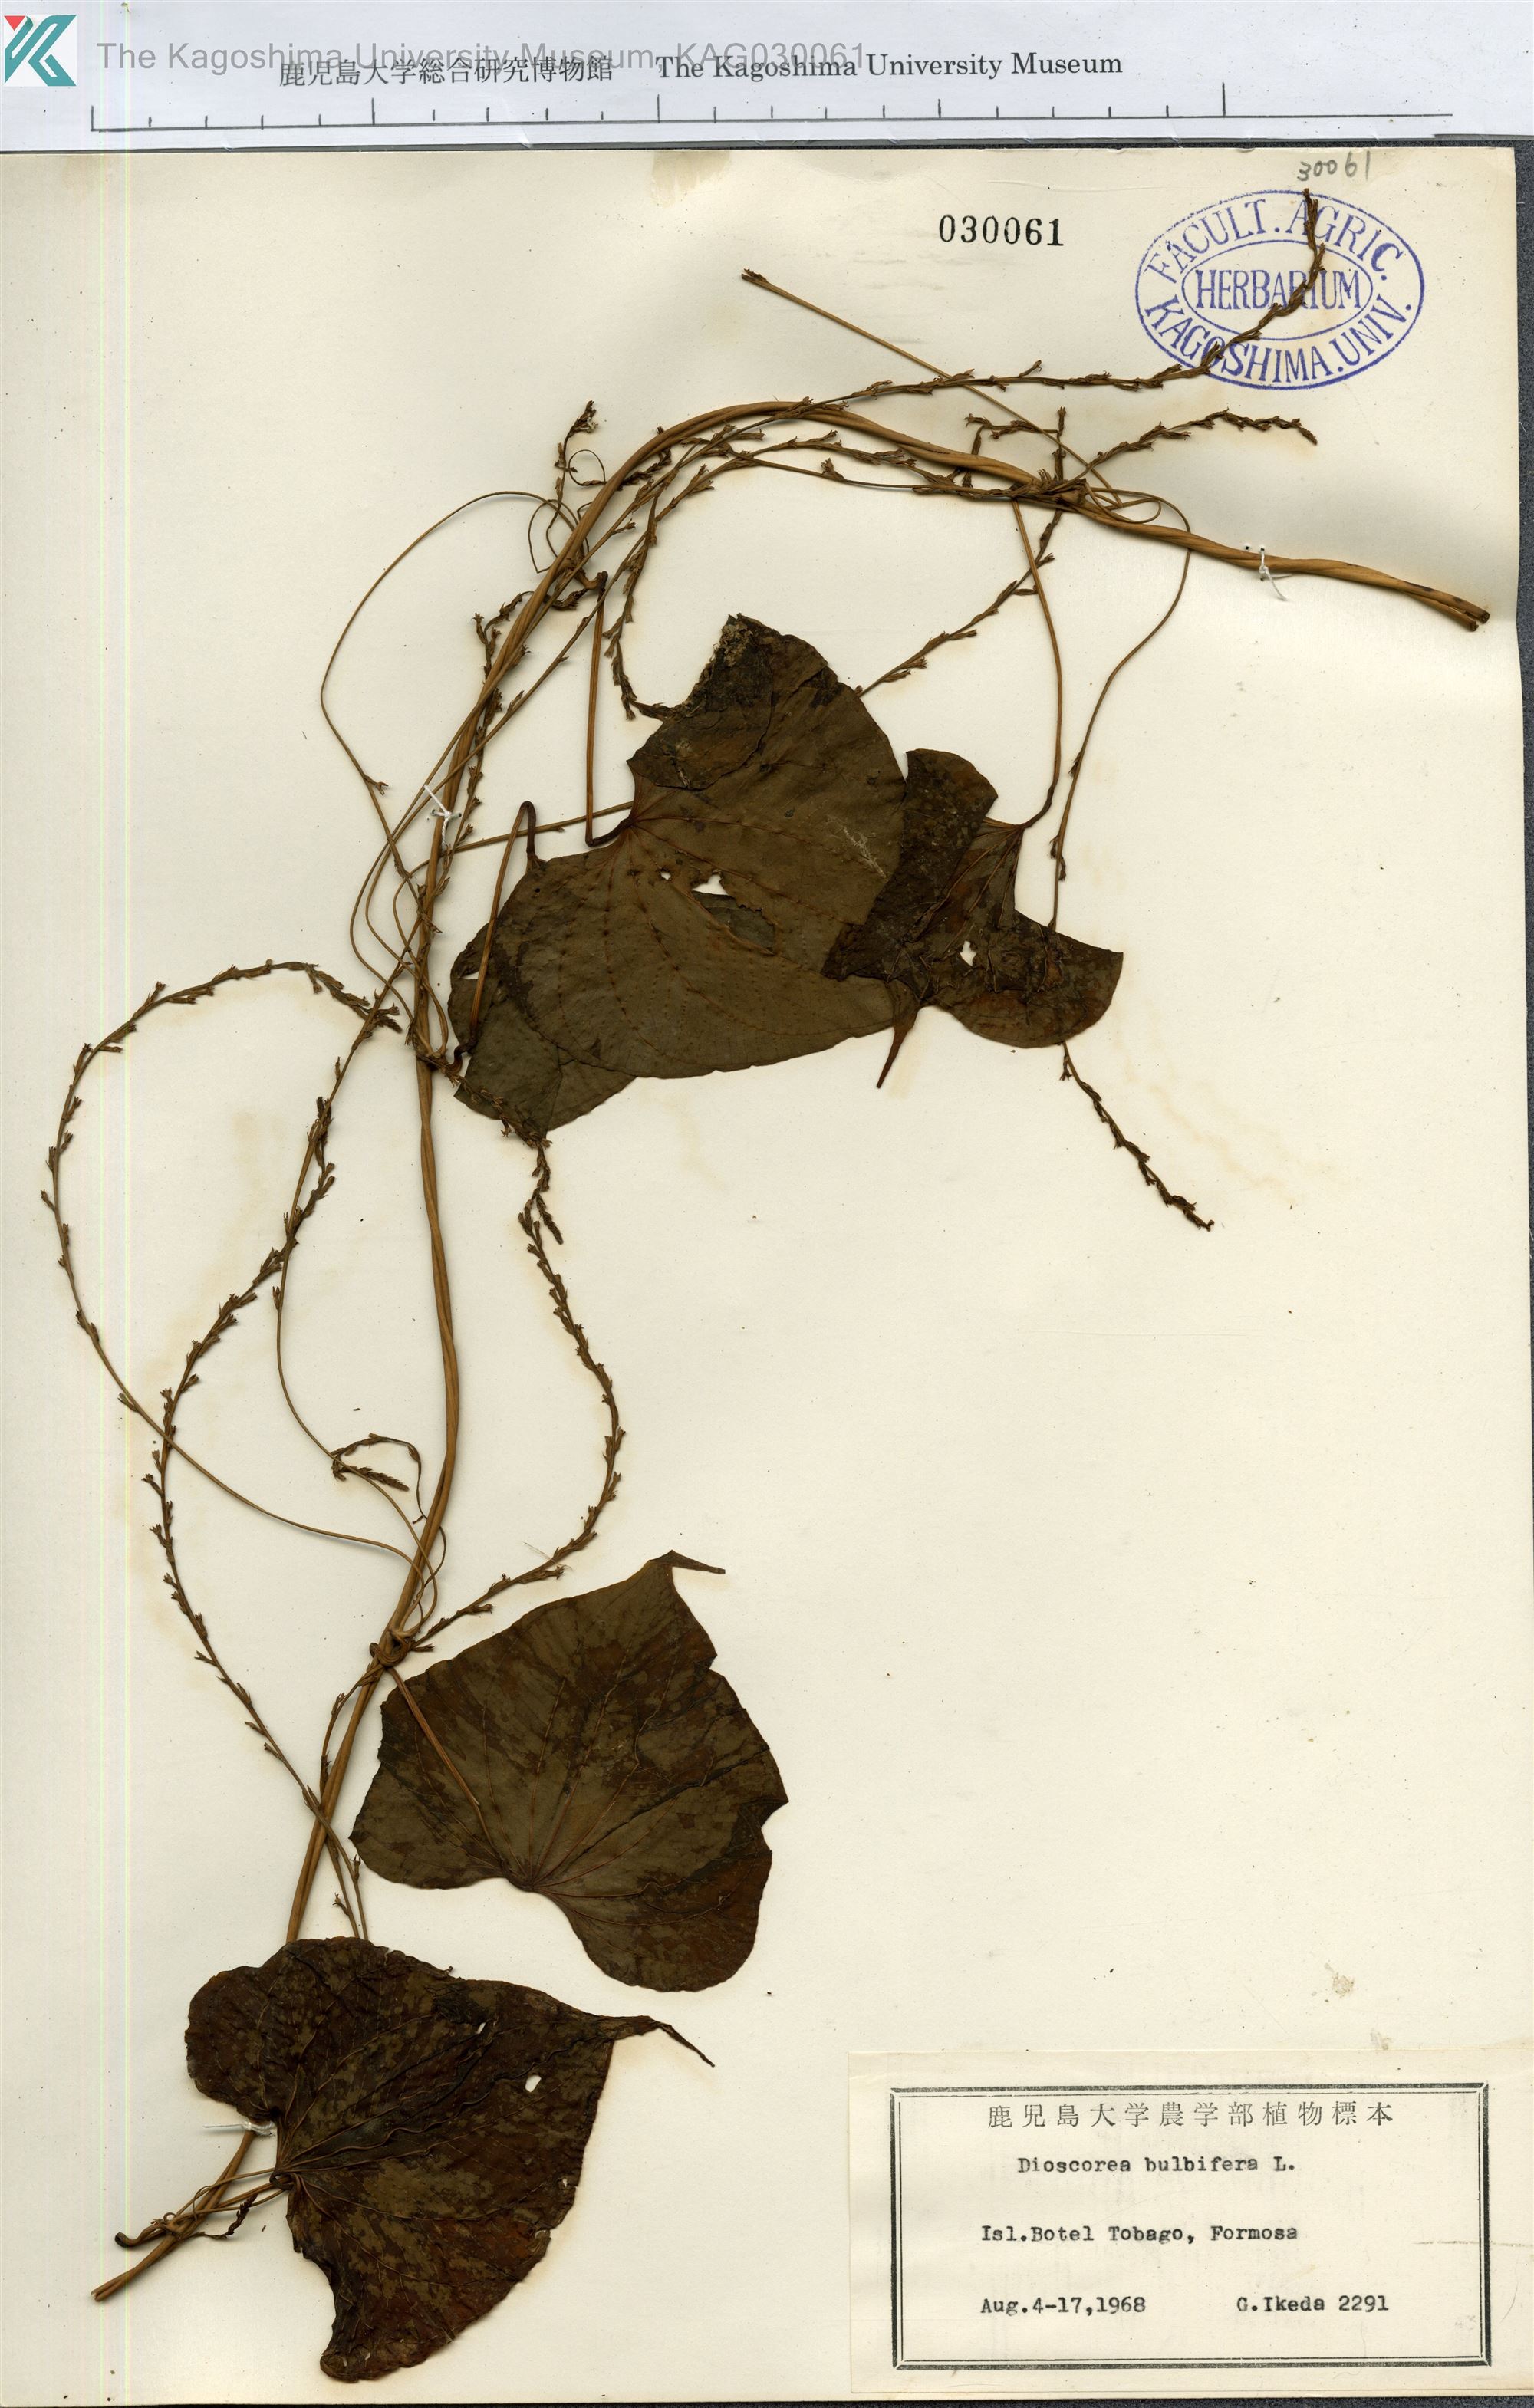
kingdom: Plantae
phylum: Tracheophyta
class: Liliopsida
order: Dioscoreales
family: Dioscoreaceae
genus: Dioscorea
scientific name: Dioscorea bulbifera
